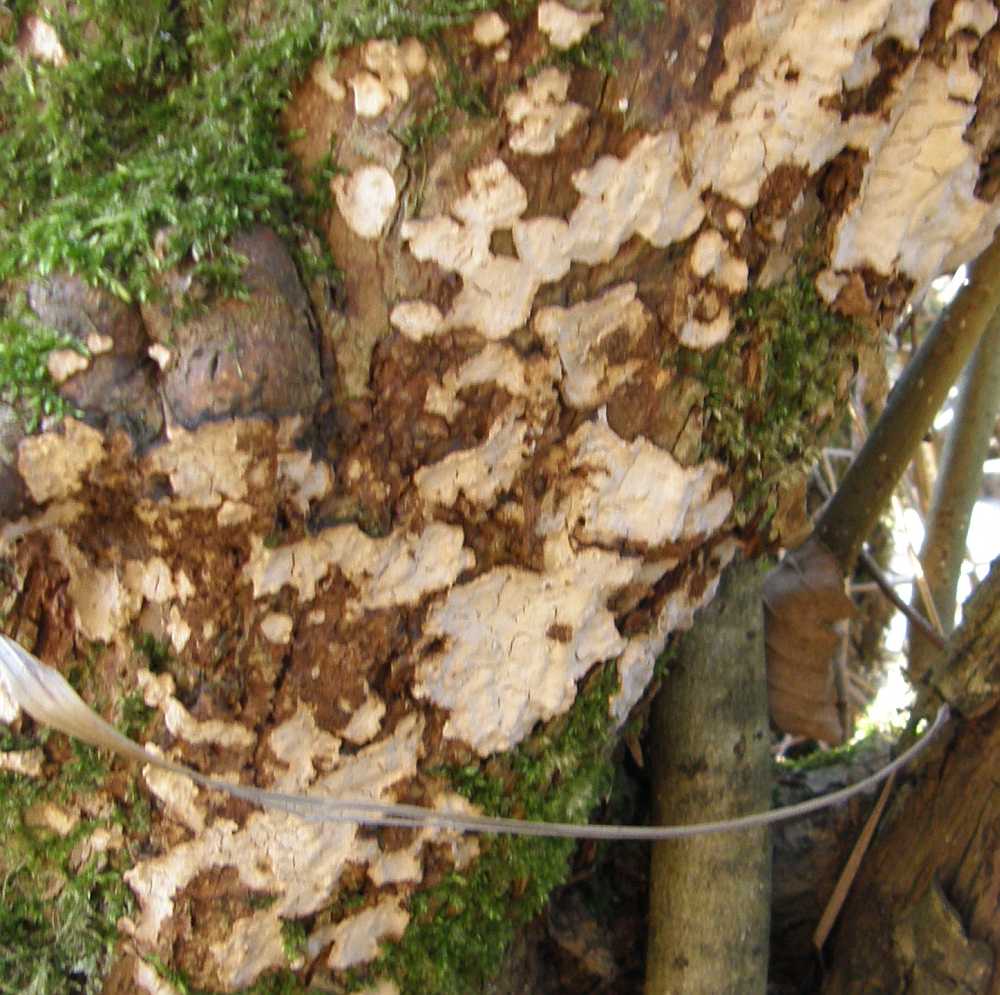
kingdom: Fungi
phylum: Basidiomycota
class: Agaricomycetes
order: Russulales
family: Stereaceae
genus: Stereum
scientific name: Stereum rugosum
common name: rynket lædersvamp
